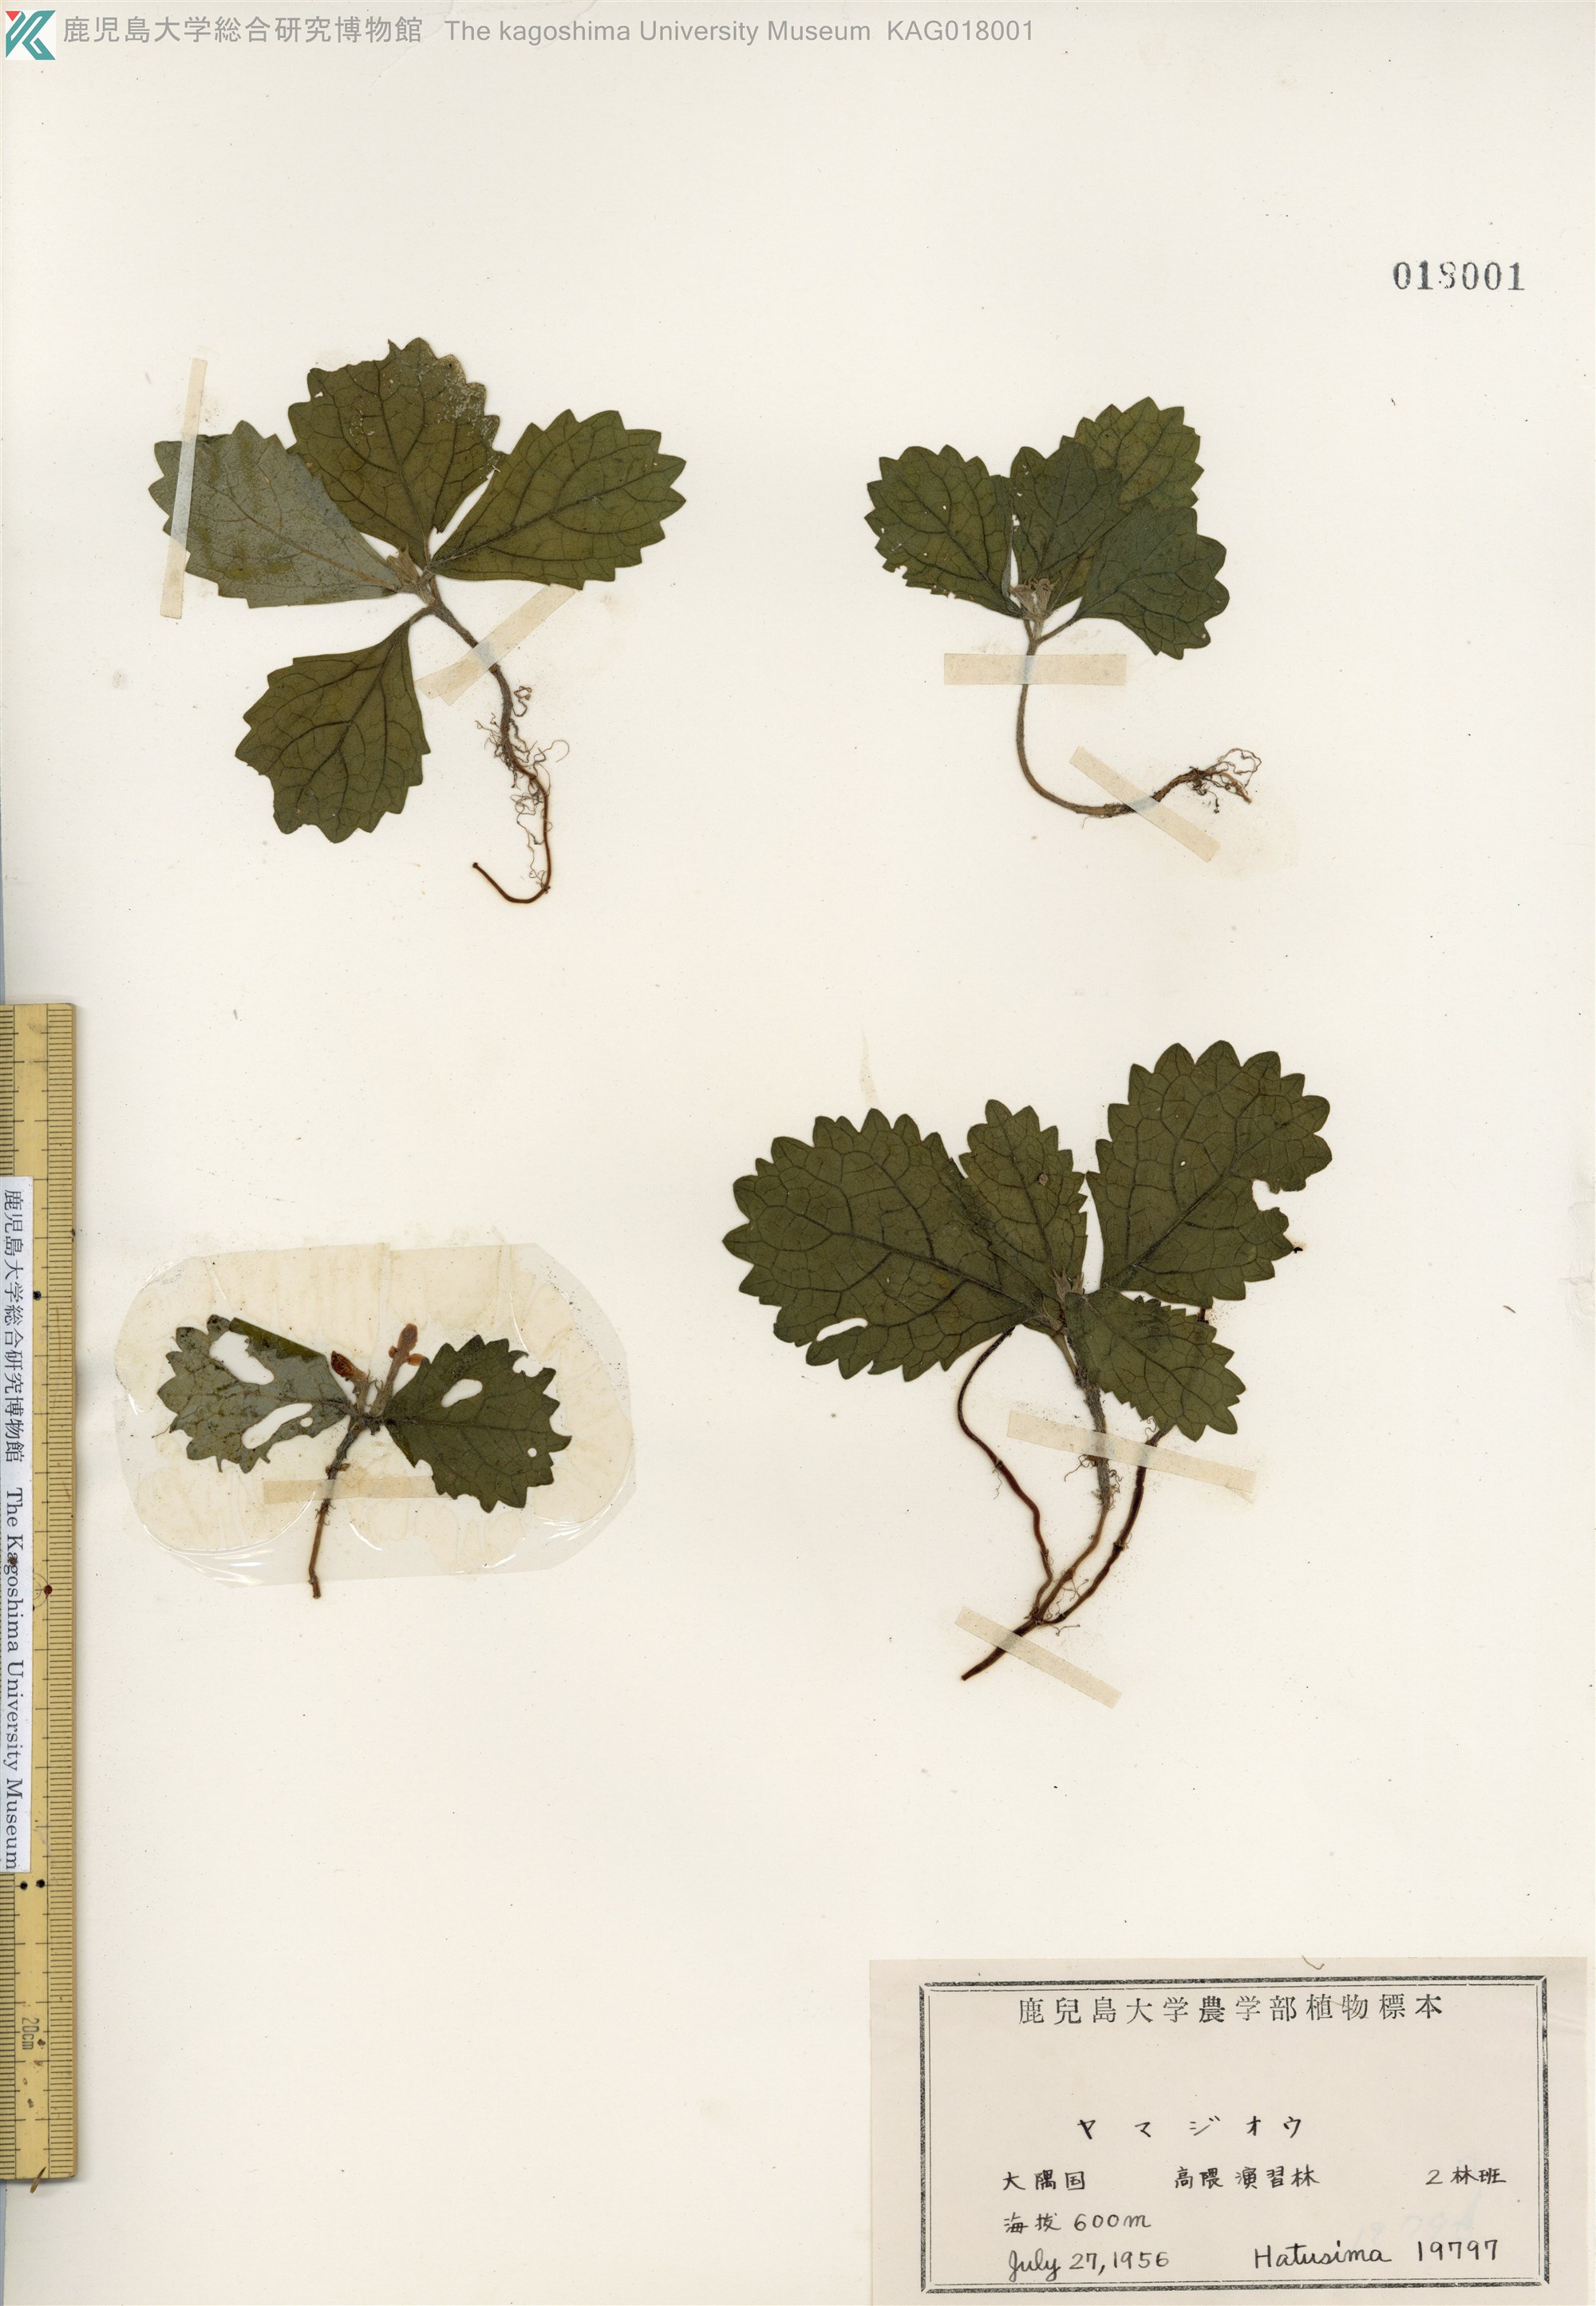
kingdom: Plantae
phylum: Tracheophyta
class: Magnoliopsida
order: Lamiales
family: Lamiaceae
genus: Ajugoides
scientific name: Ajugoides humilis
